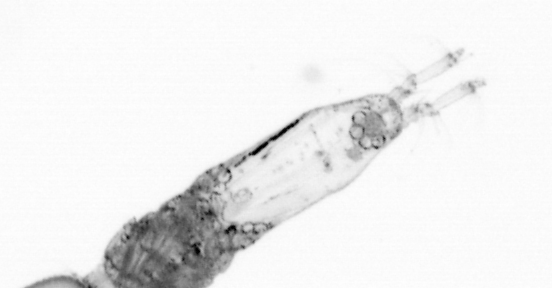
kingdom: Animalia
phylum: Arthropoda
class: Copepoda
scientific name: Copepoda
